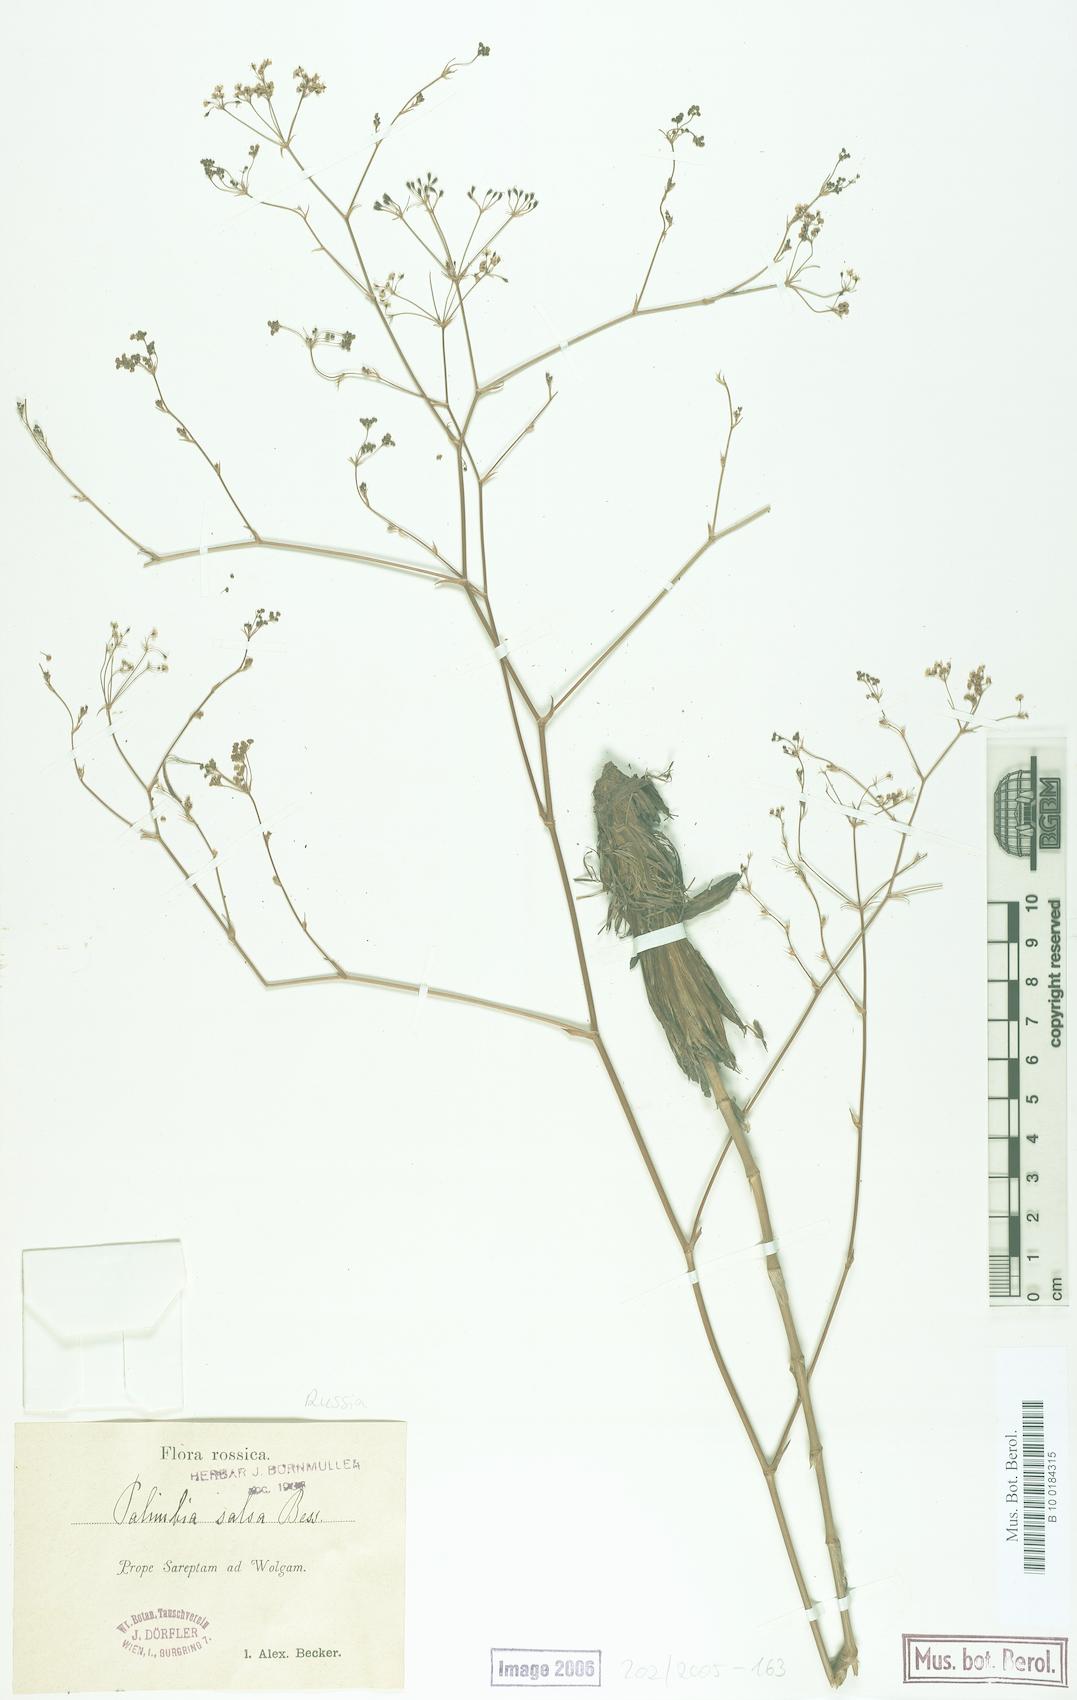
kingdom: Plantae
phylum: Tracheophyta
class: Magnoliopsida
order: Apiales
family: Apiaceae
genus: Palimbia
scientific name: Palimbia rediviva
